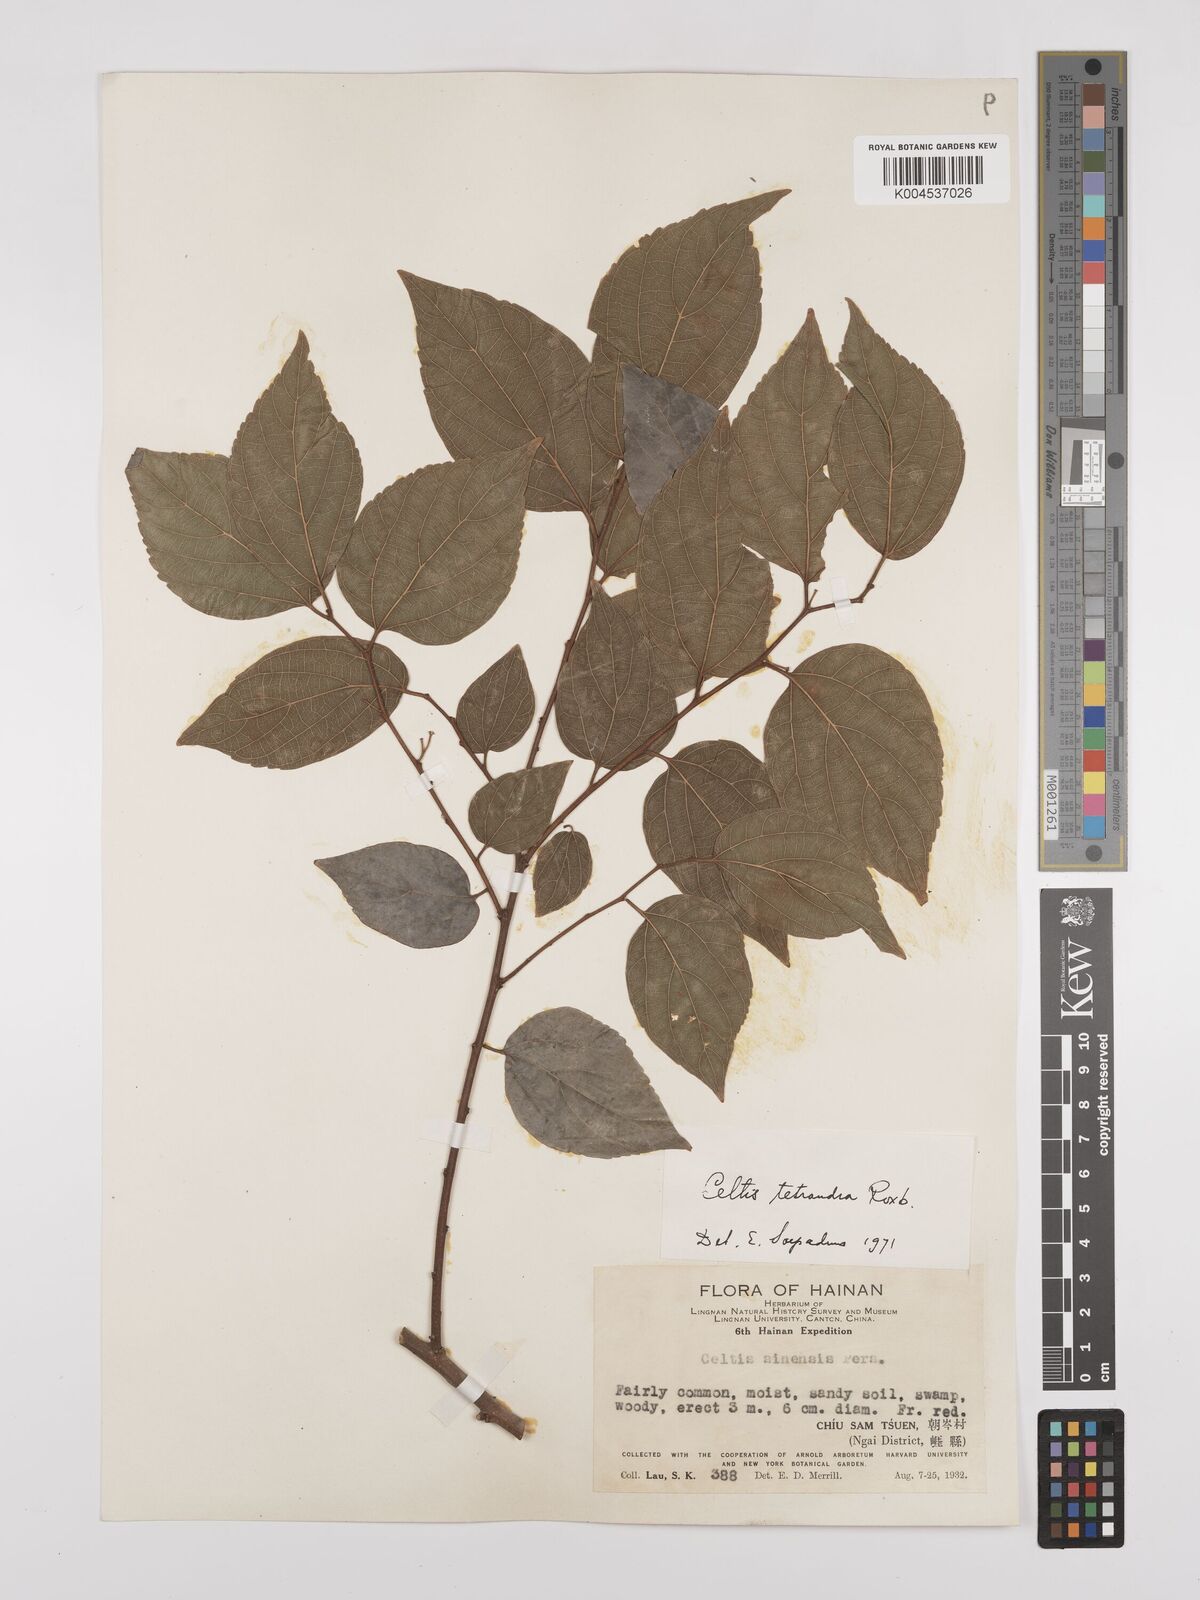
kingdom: Plantae
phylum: Tracheophyta
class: Magnoliopsida
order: Rosales
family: Cannabaceae
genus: Celtis
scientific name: Celtis tetrandra
